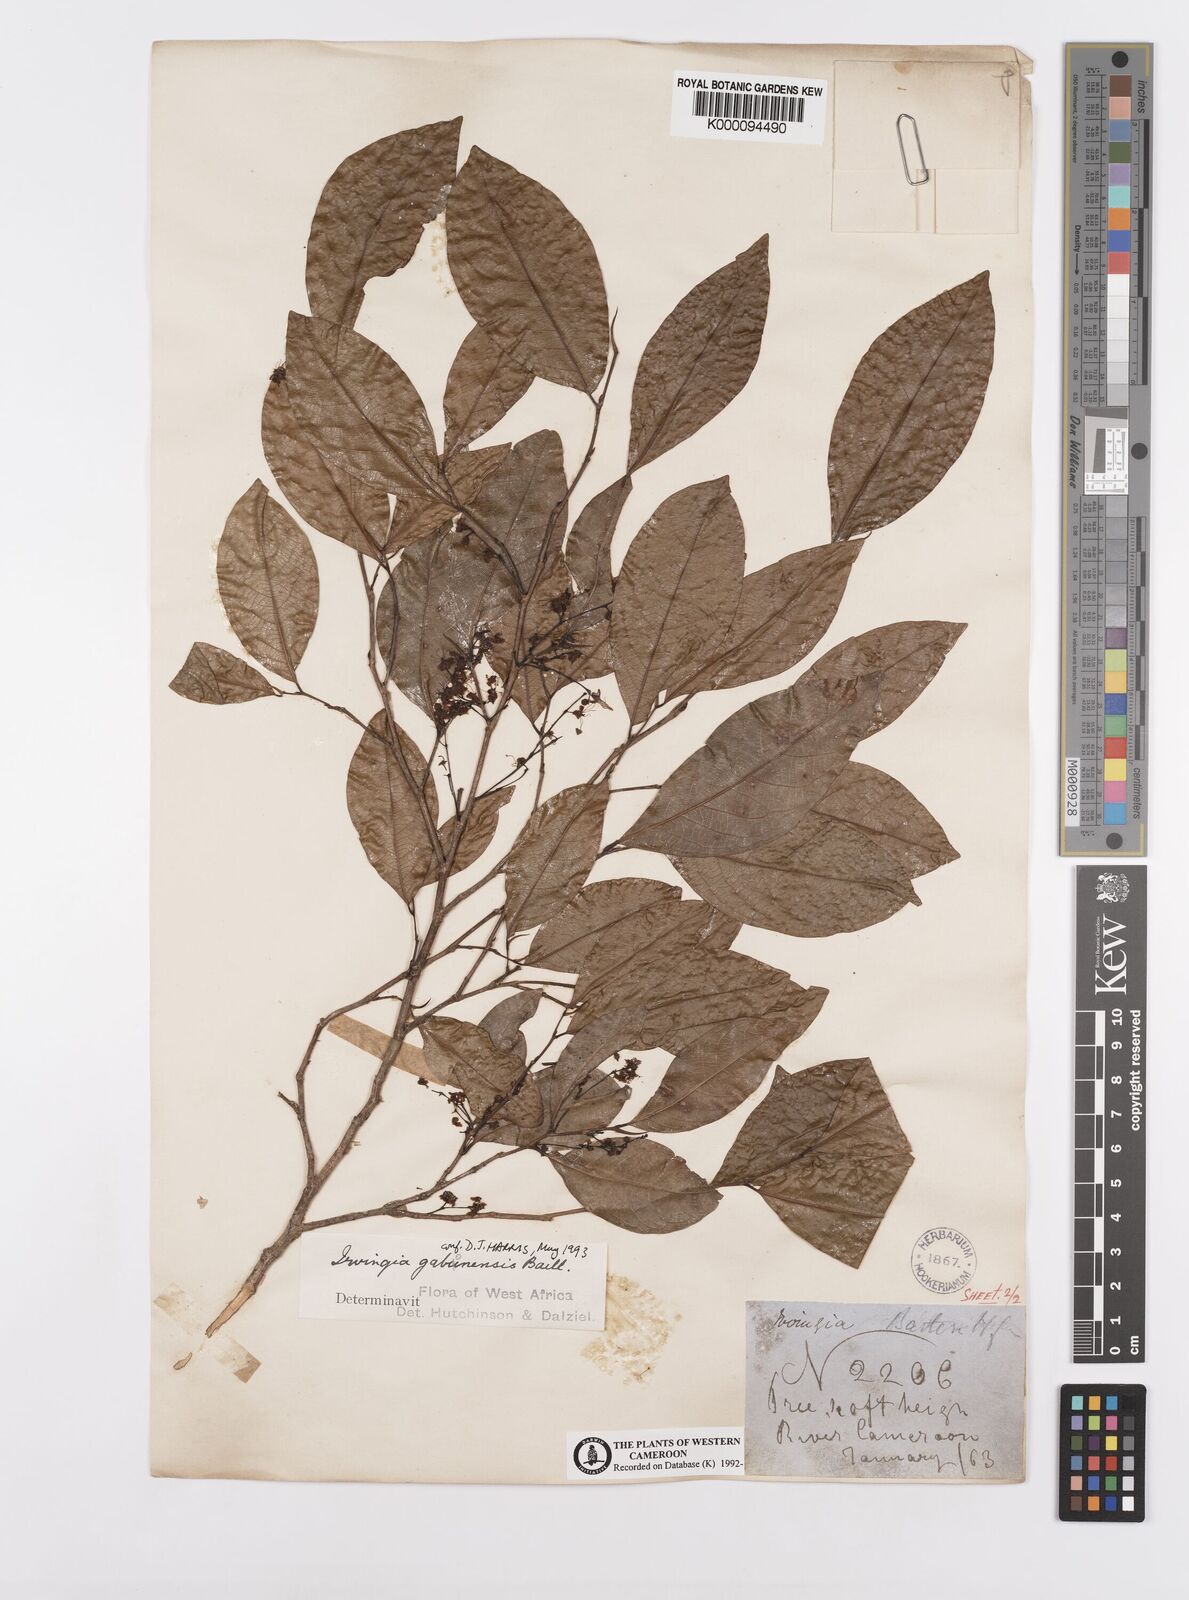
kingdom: Plantae
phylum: Tracheophyta
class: Magnoliopsida
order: Malpighiales
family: Irvingiaceae
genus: Irvingia
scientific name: Irvingia gabonensis
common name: Rainy season bush-mango
